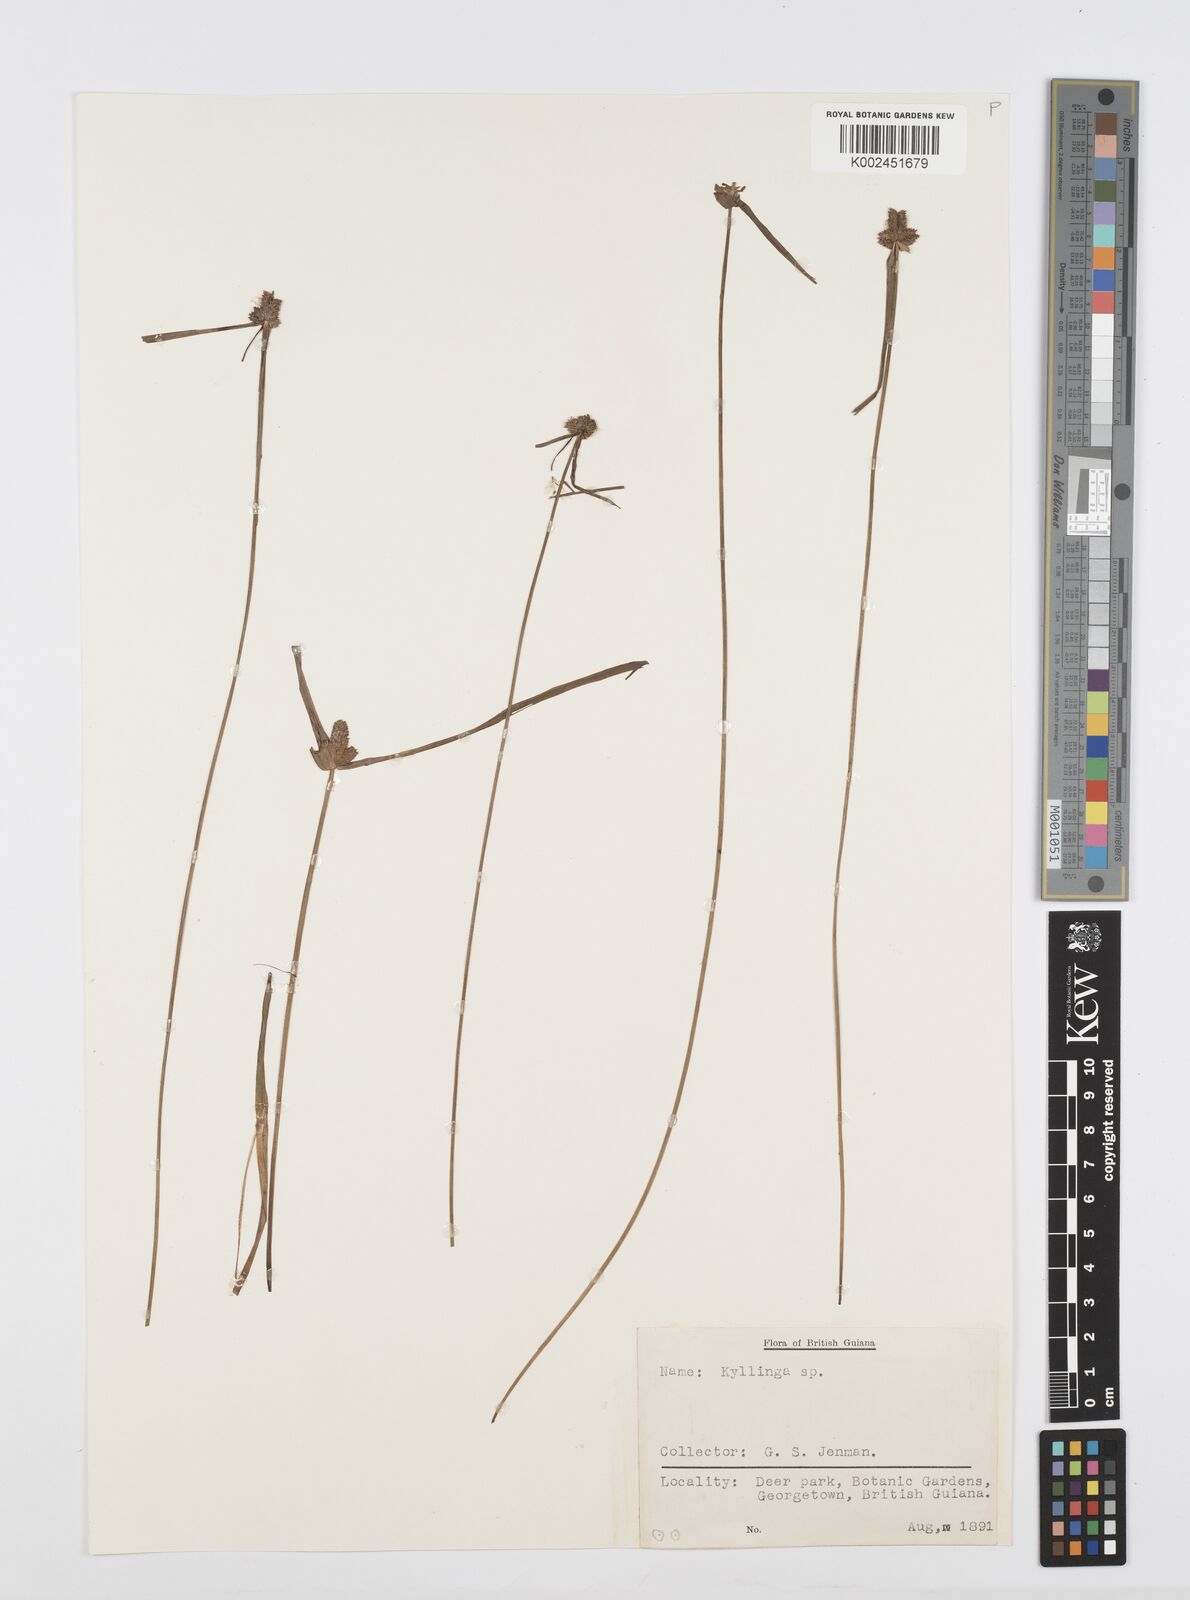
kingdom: Plantae
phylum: Tracheophyta
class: Liliopsida
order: Poales
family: Cyperaceae
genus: Cyperus
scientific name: Cyperus
